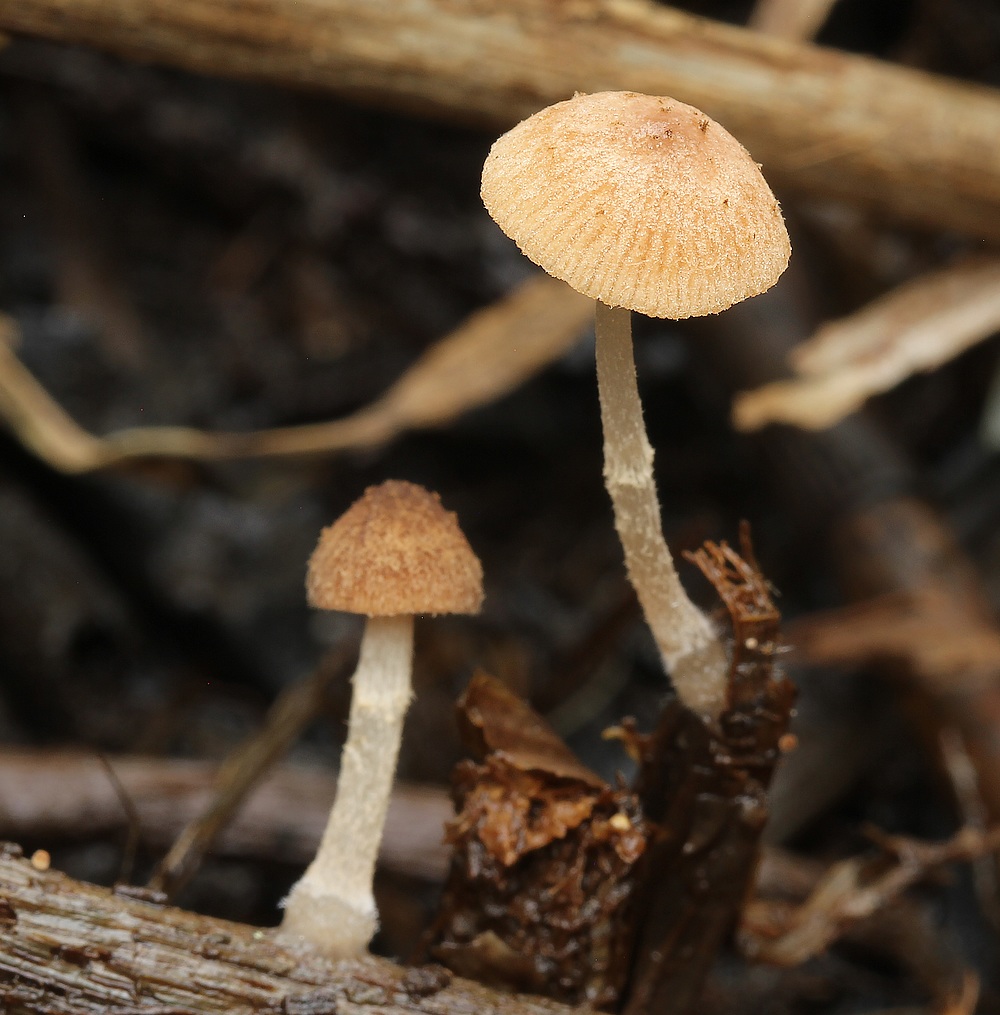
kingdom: Fungi
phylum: Basidiomycota
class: Agaricomycetes
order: Agaricales
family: Psathyrellaceae
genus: Candolleomyces
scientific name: Candolleomyces typhae
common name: dunhammer-mørkhat
